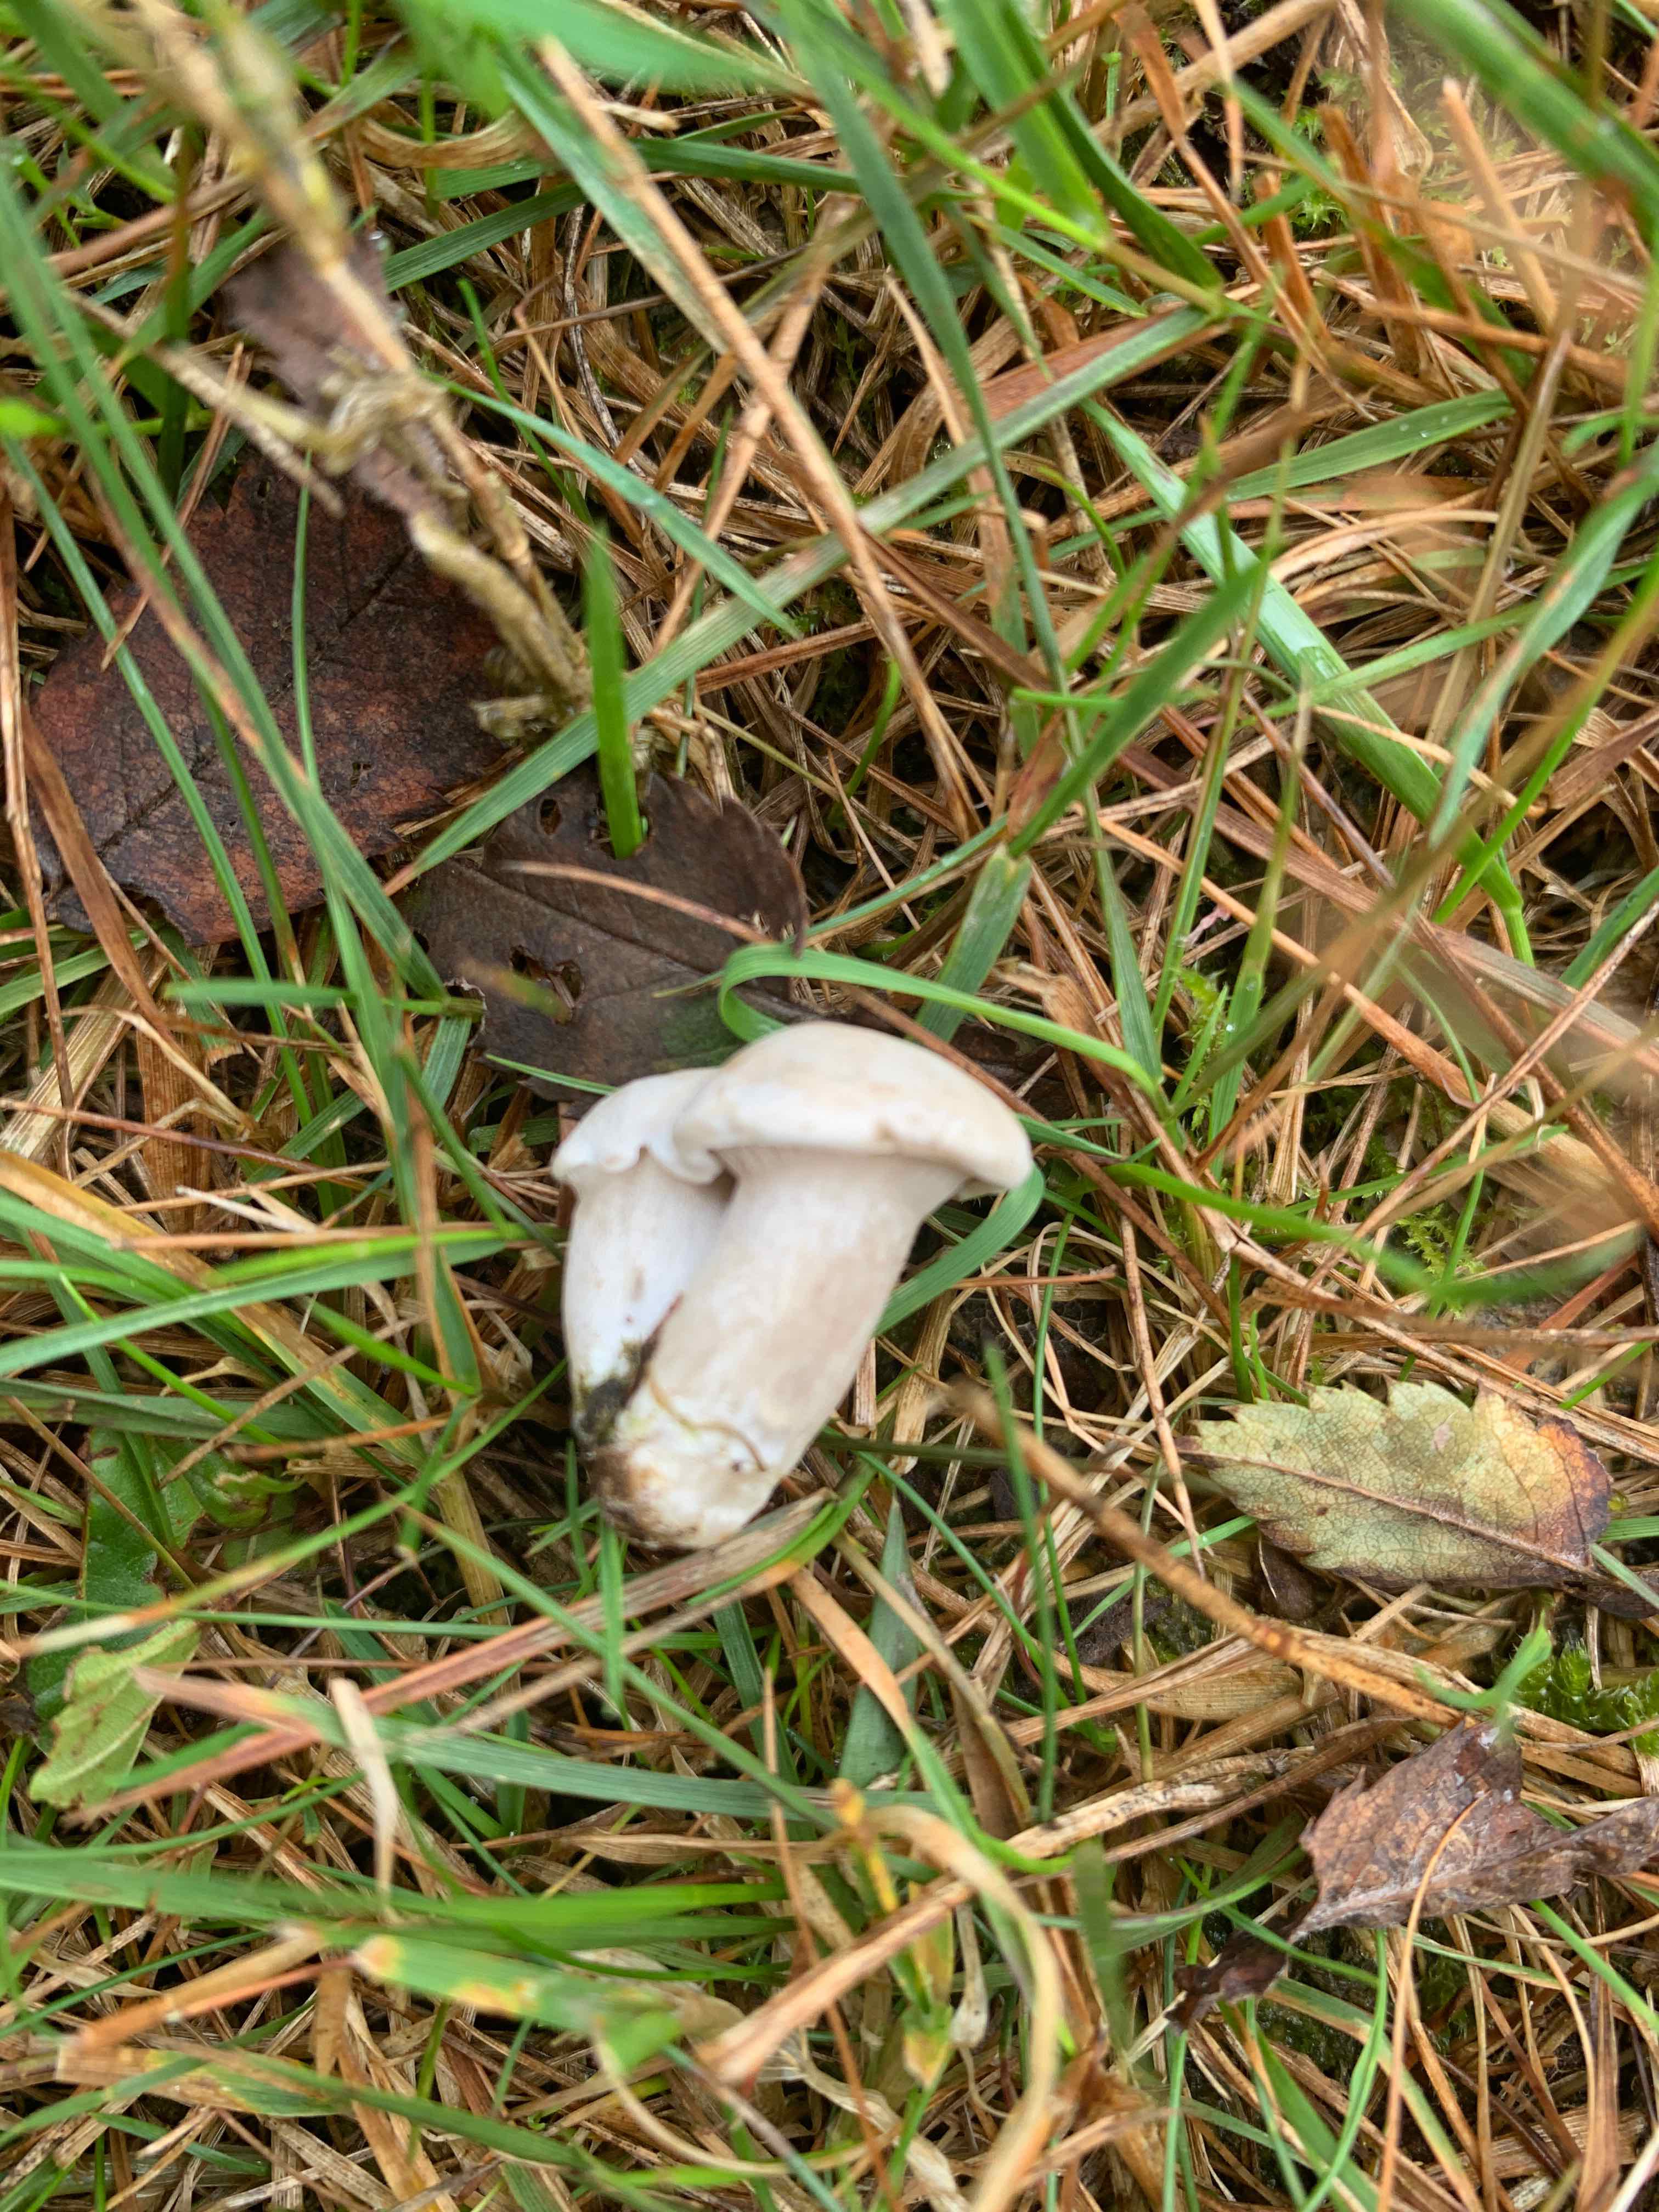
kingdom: Fungi
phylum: Basidiomycota
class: Agaricomycetes
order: Agaricales
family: Entolomataceae
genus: Clitopilus
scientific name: Clitopilus prunulus
